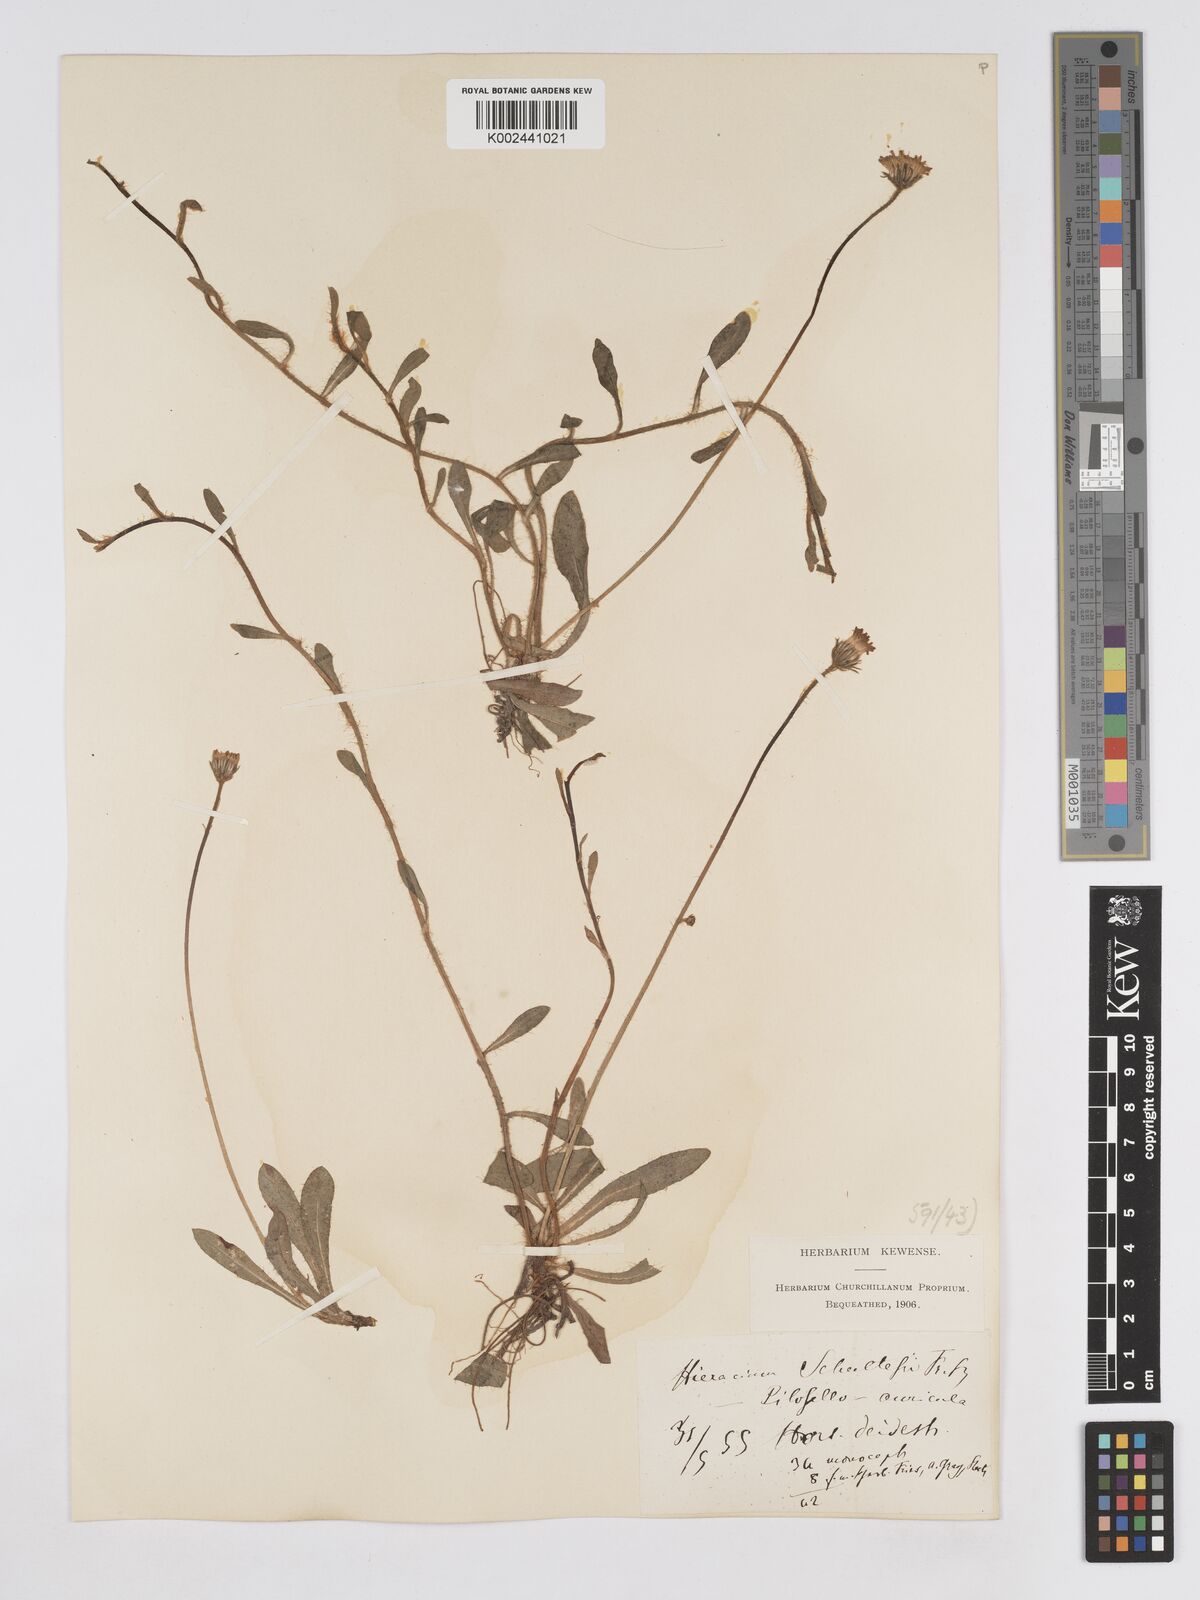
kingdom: Plantae
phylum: Tracheophyta
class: Magnoliopsida
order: Asterales
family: Asteraceae
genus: Pilosella
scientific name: Pilosella schultesii
